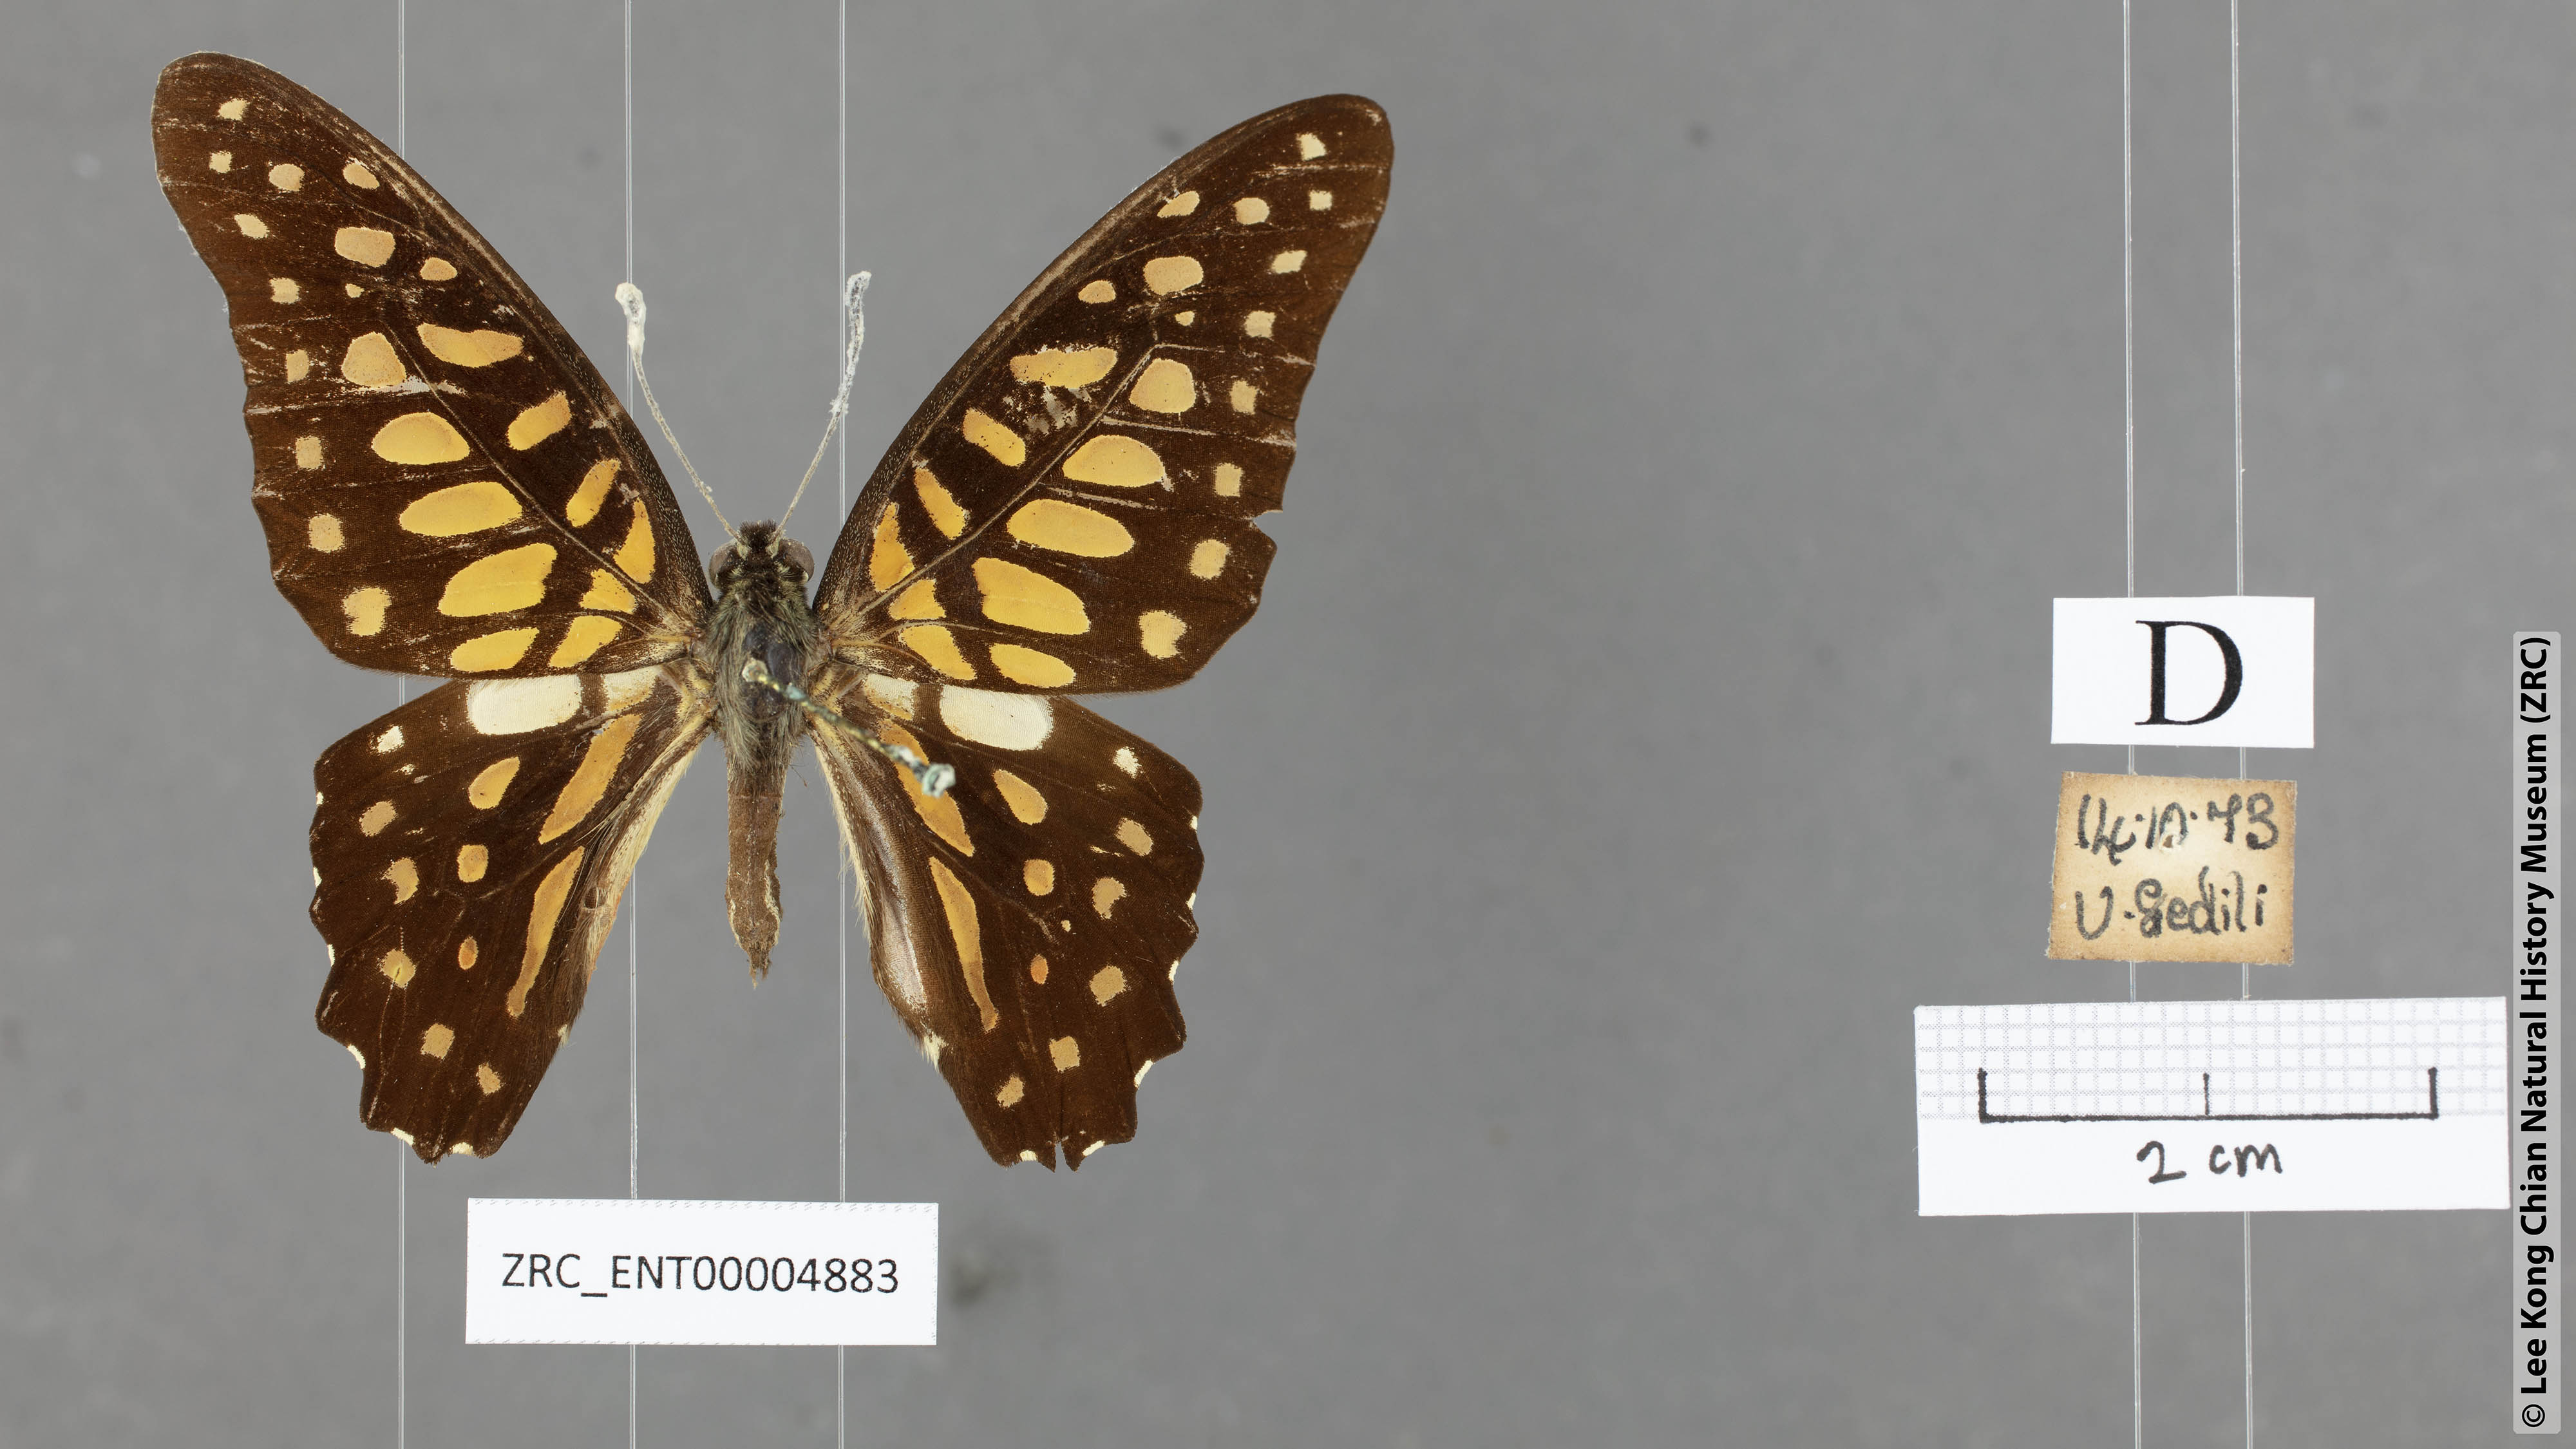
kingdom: Animalia
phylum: Arthropoda
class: Insecta
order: Lepidoptera
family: Papilionidae
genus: Graphium
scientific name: Graphium arycles
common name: Spotted jay
